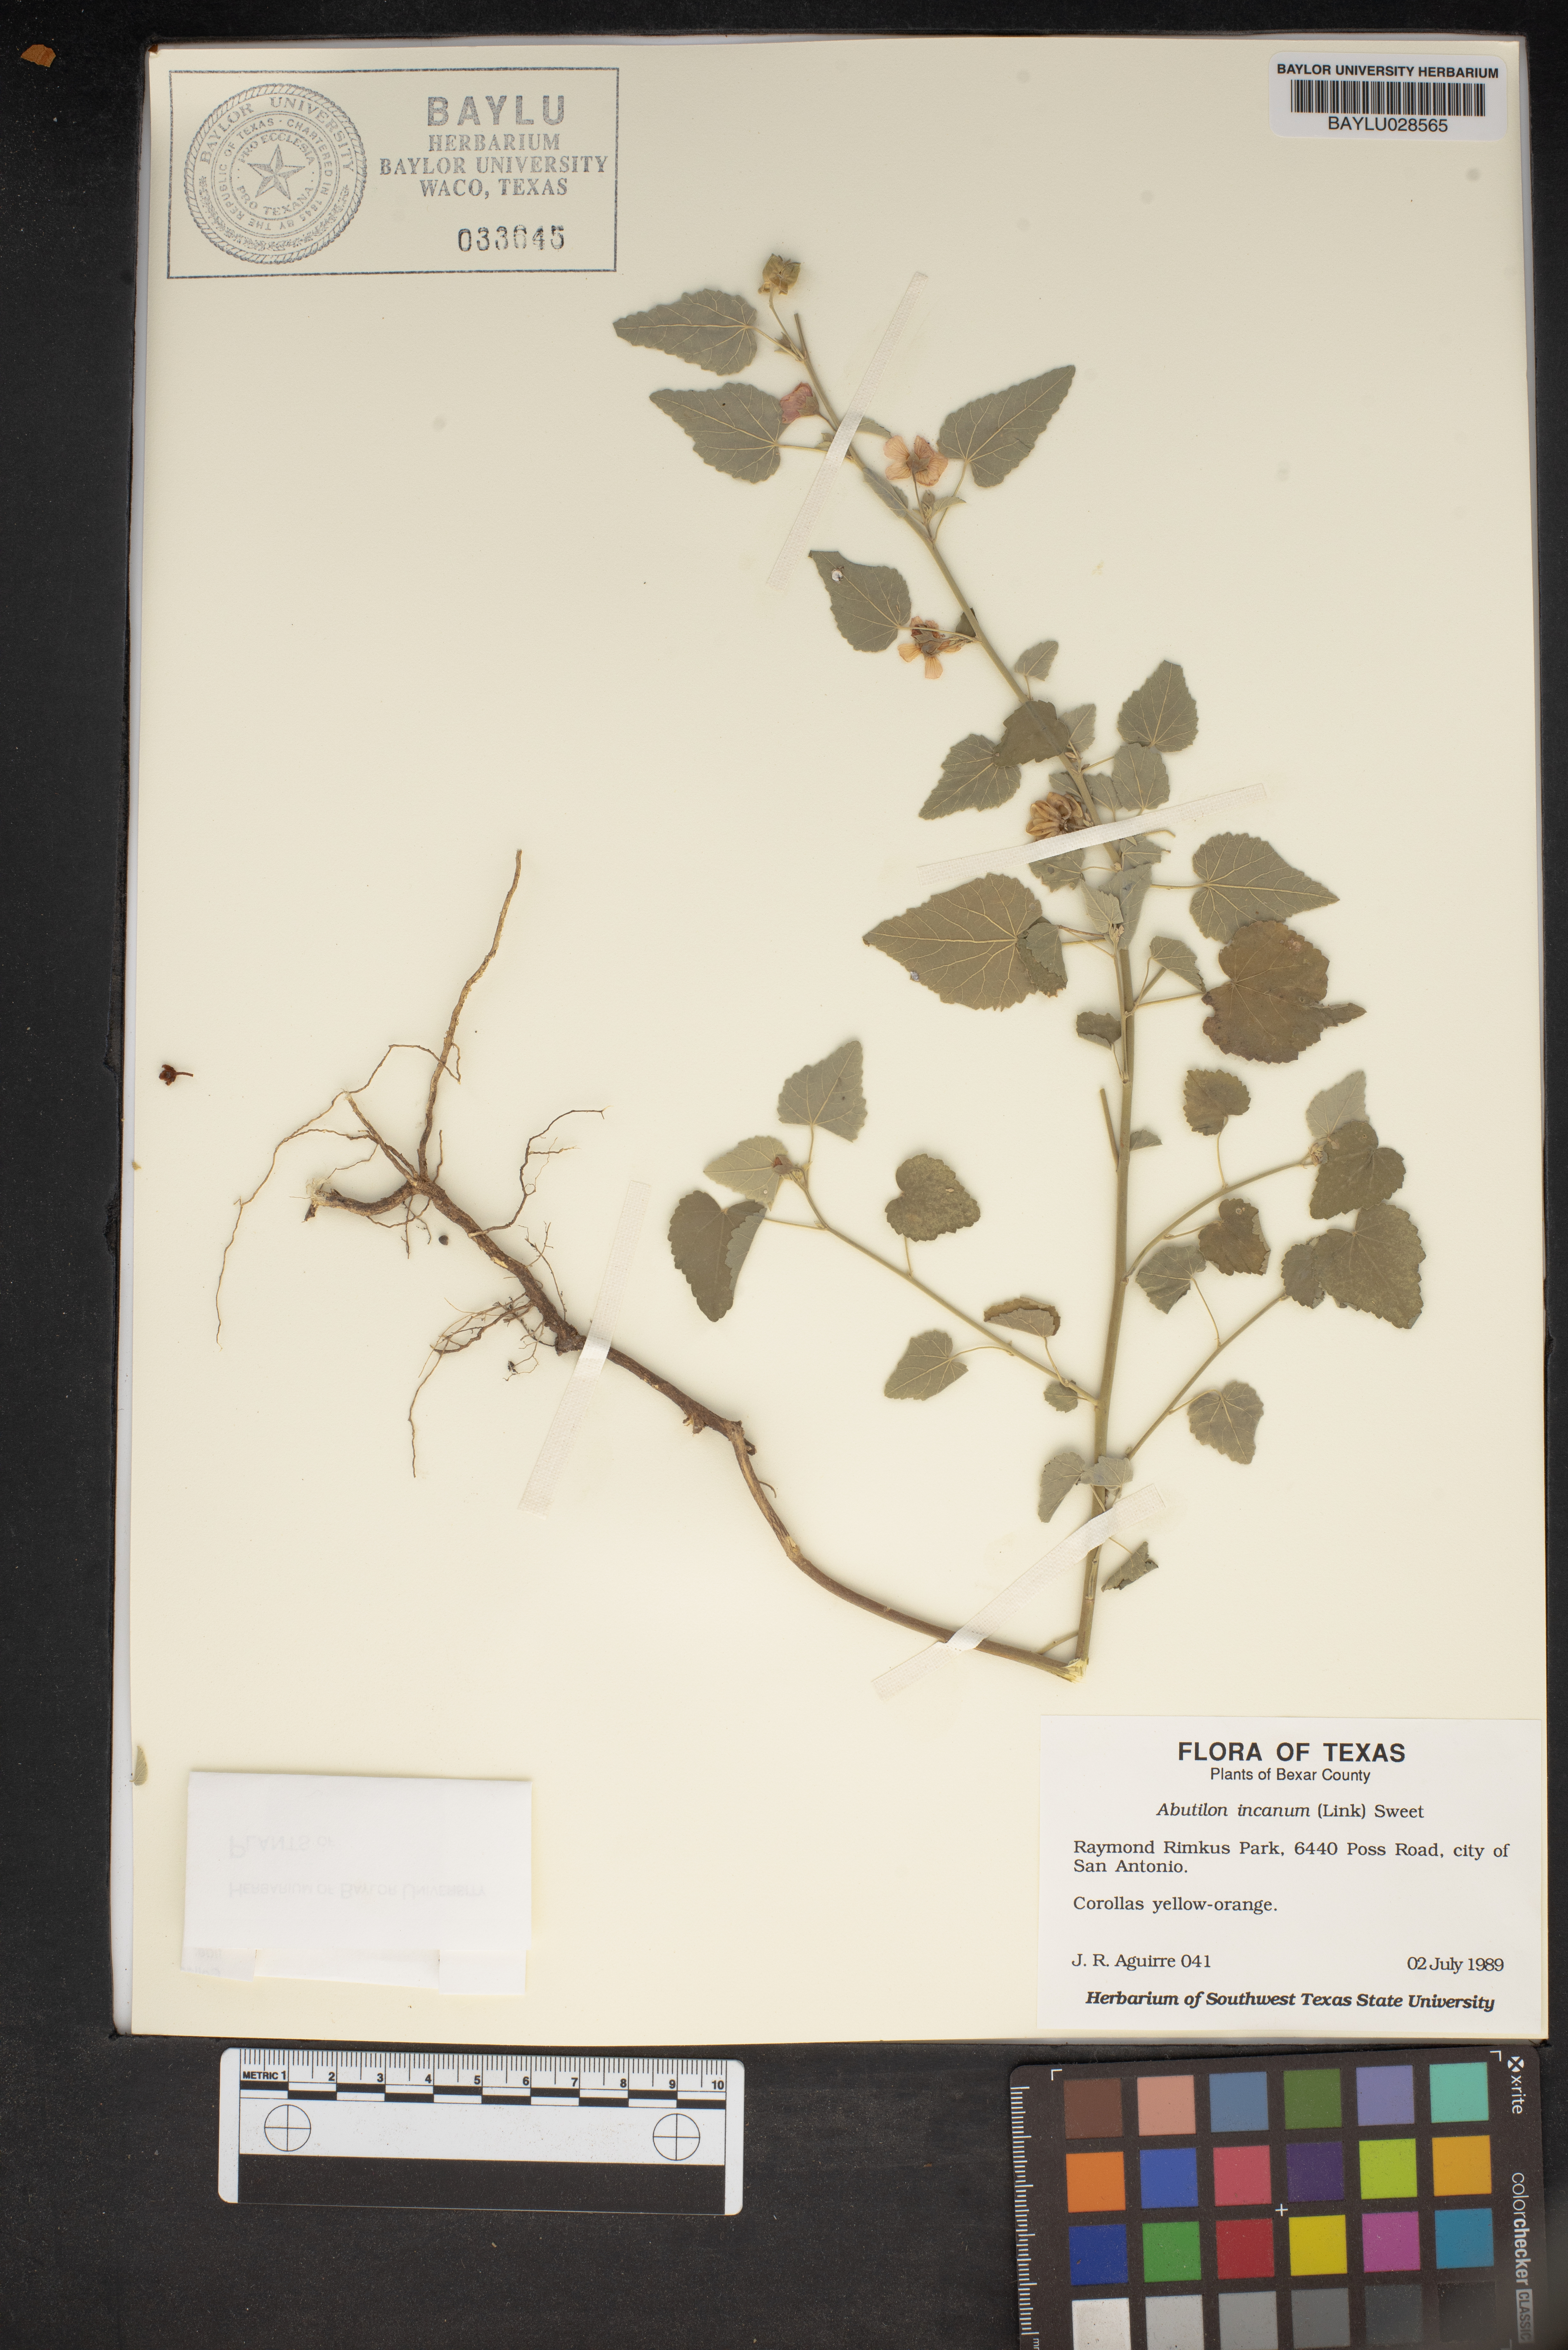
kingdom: Plantae
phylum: Tracheophyta
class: Magnoliopsida
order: Malvales
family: Malvaceae
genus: Abutilon
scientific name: Abutilon incanum
